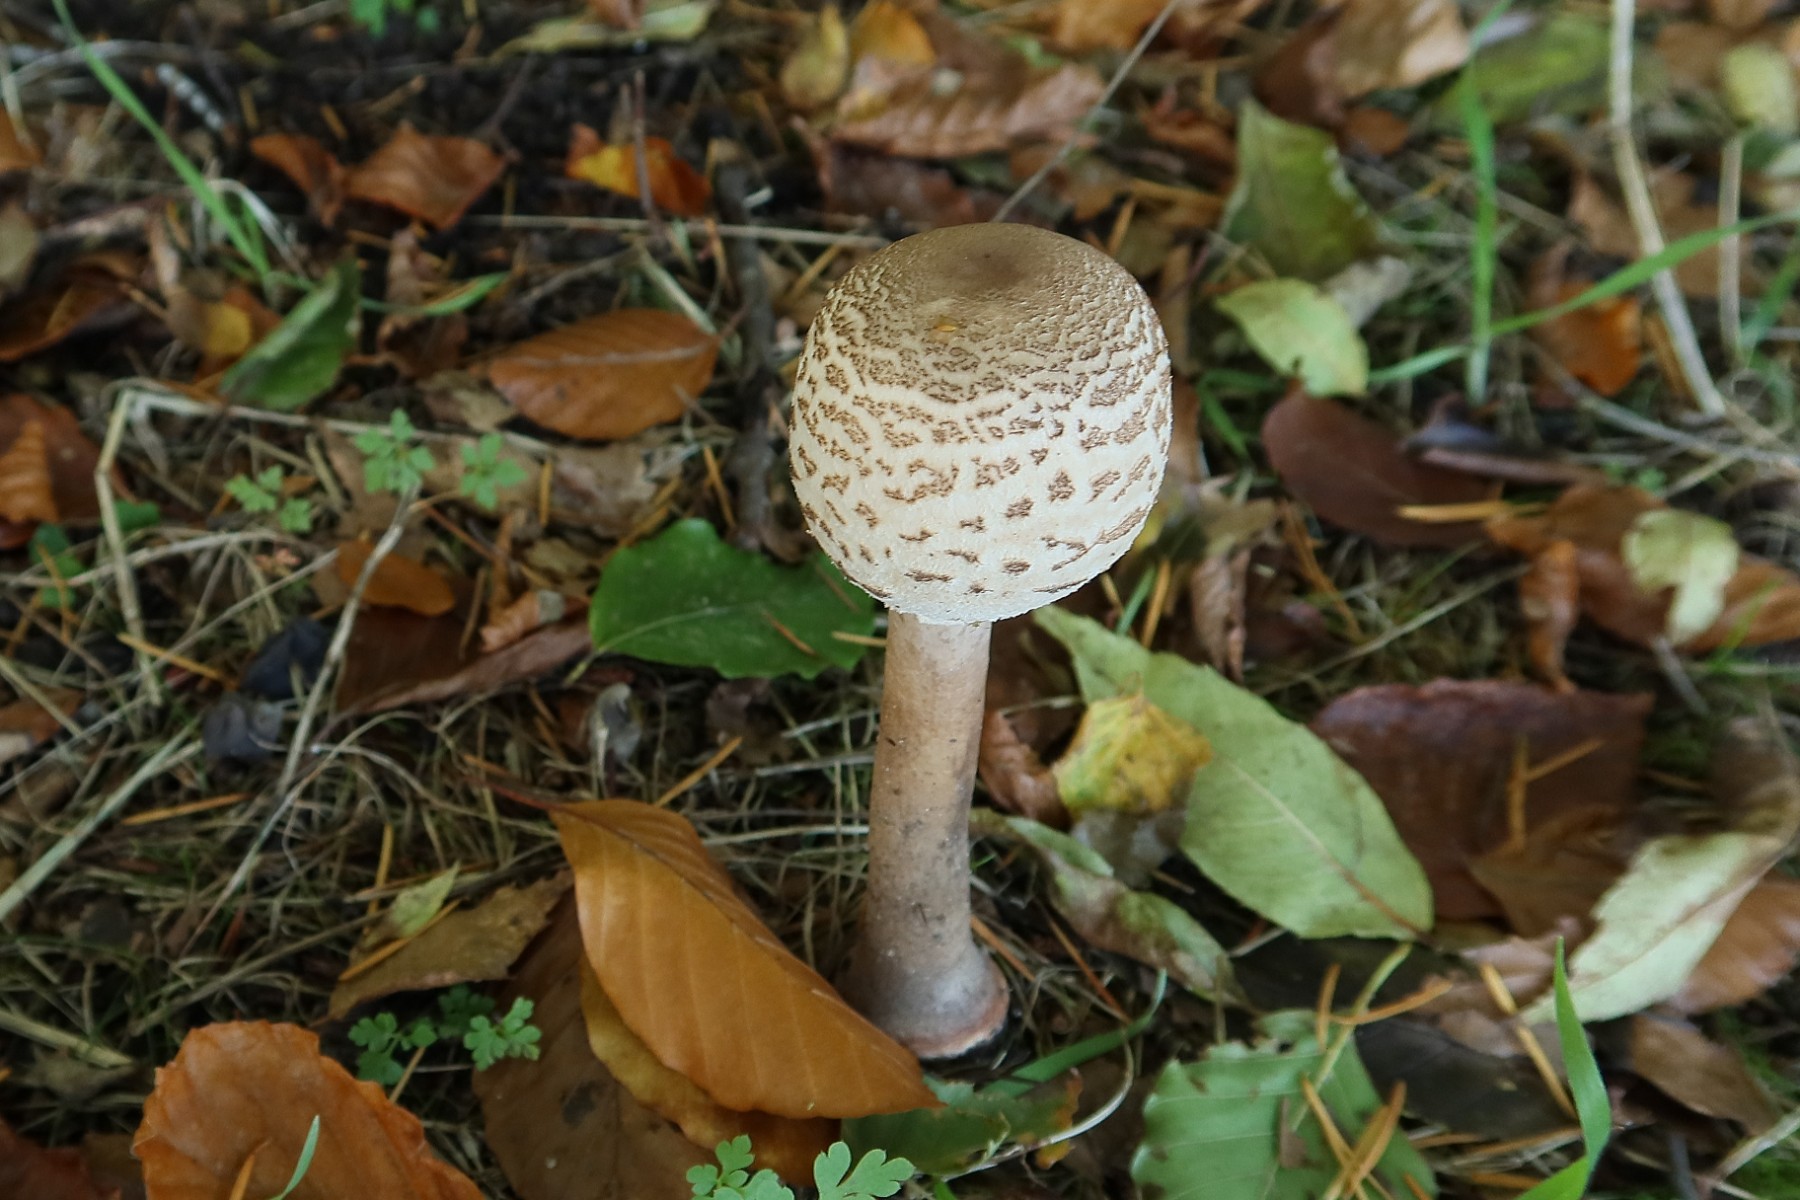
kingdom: Fungi
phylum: Basidiomycota
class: Agaricomycetes
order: Agaricales
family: Agaricaceae
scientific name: Agaricaceae
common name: champignonfamilien
